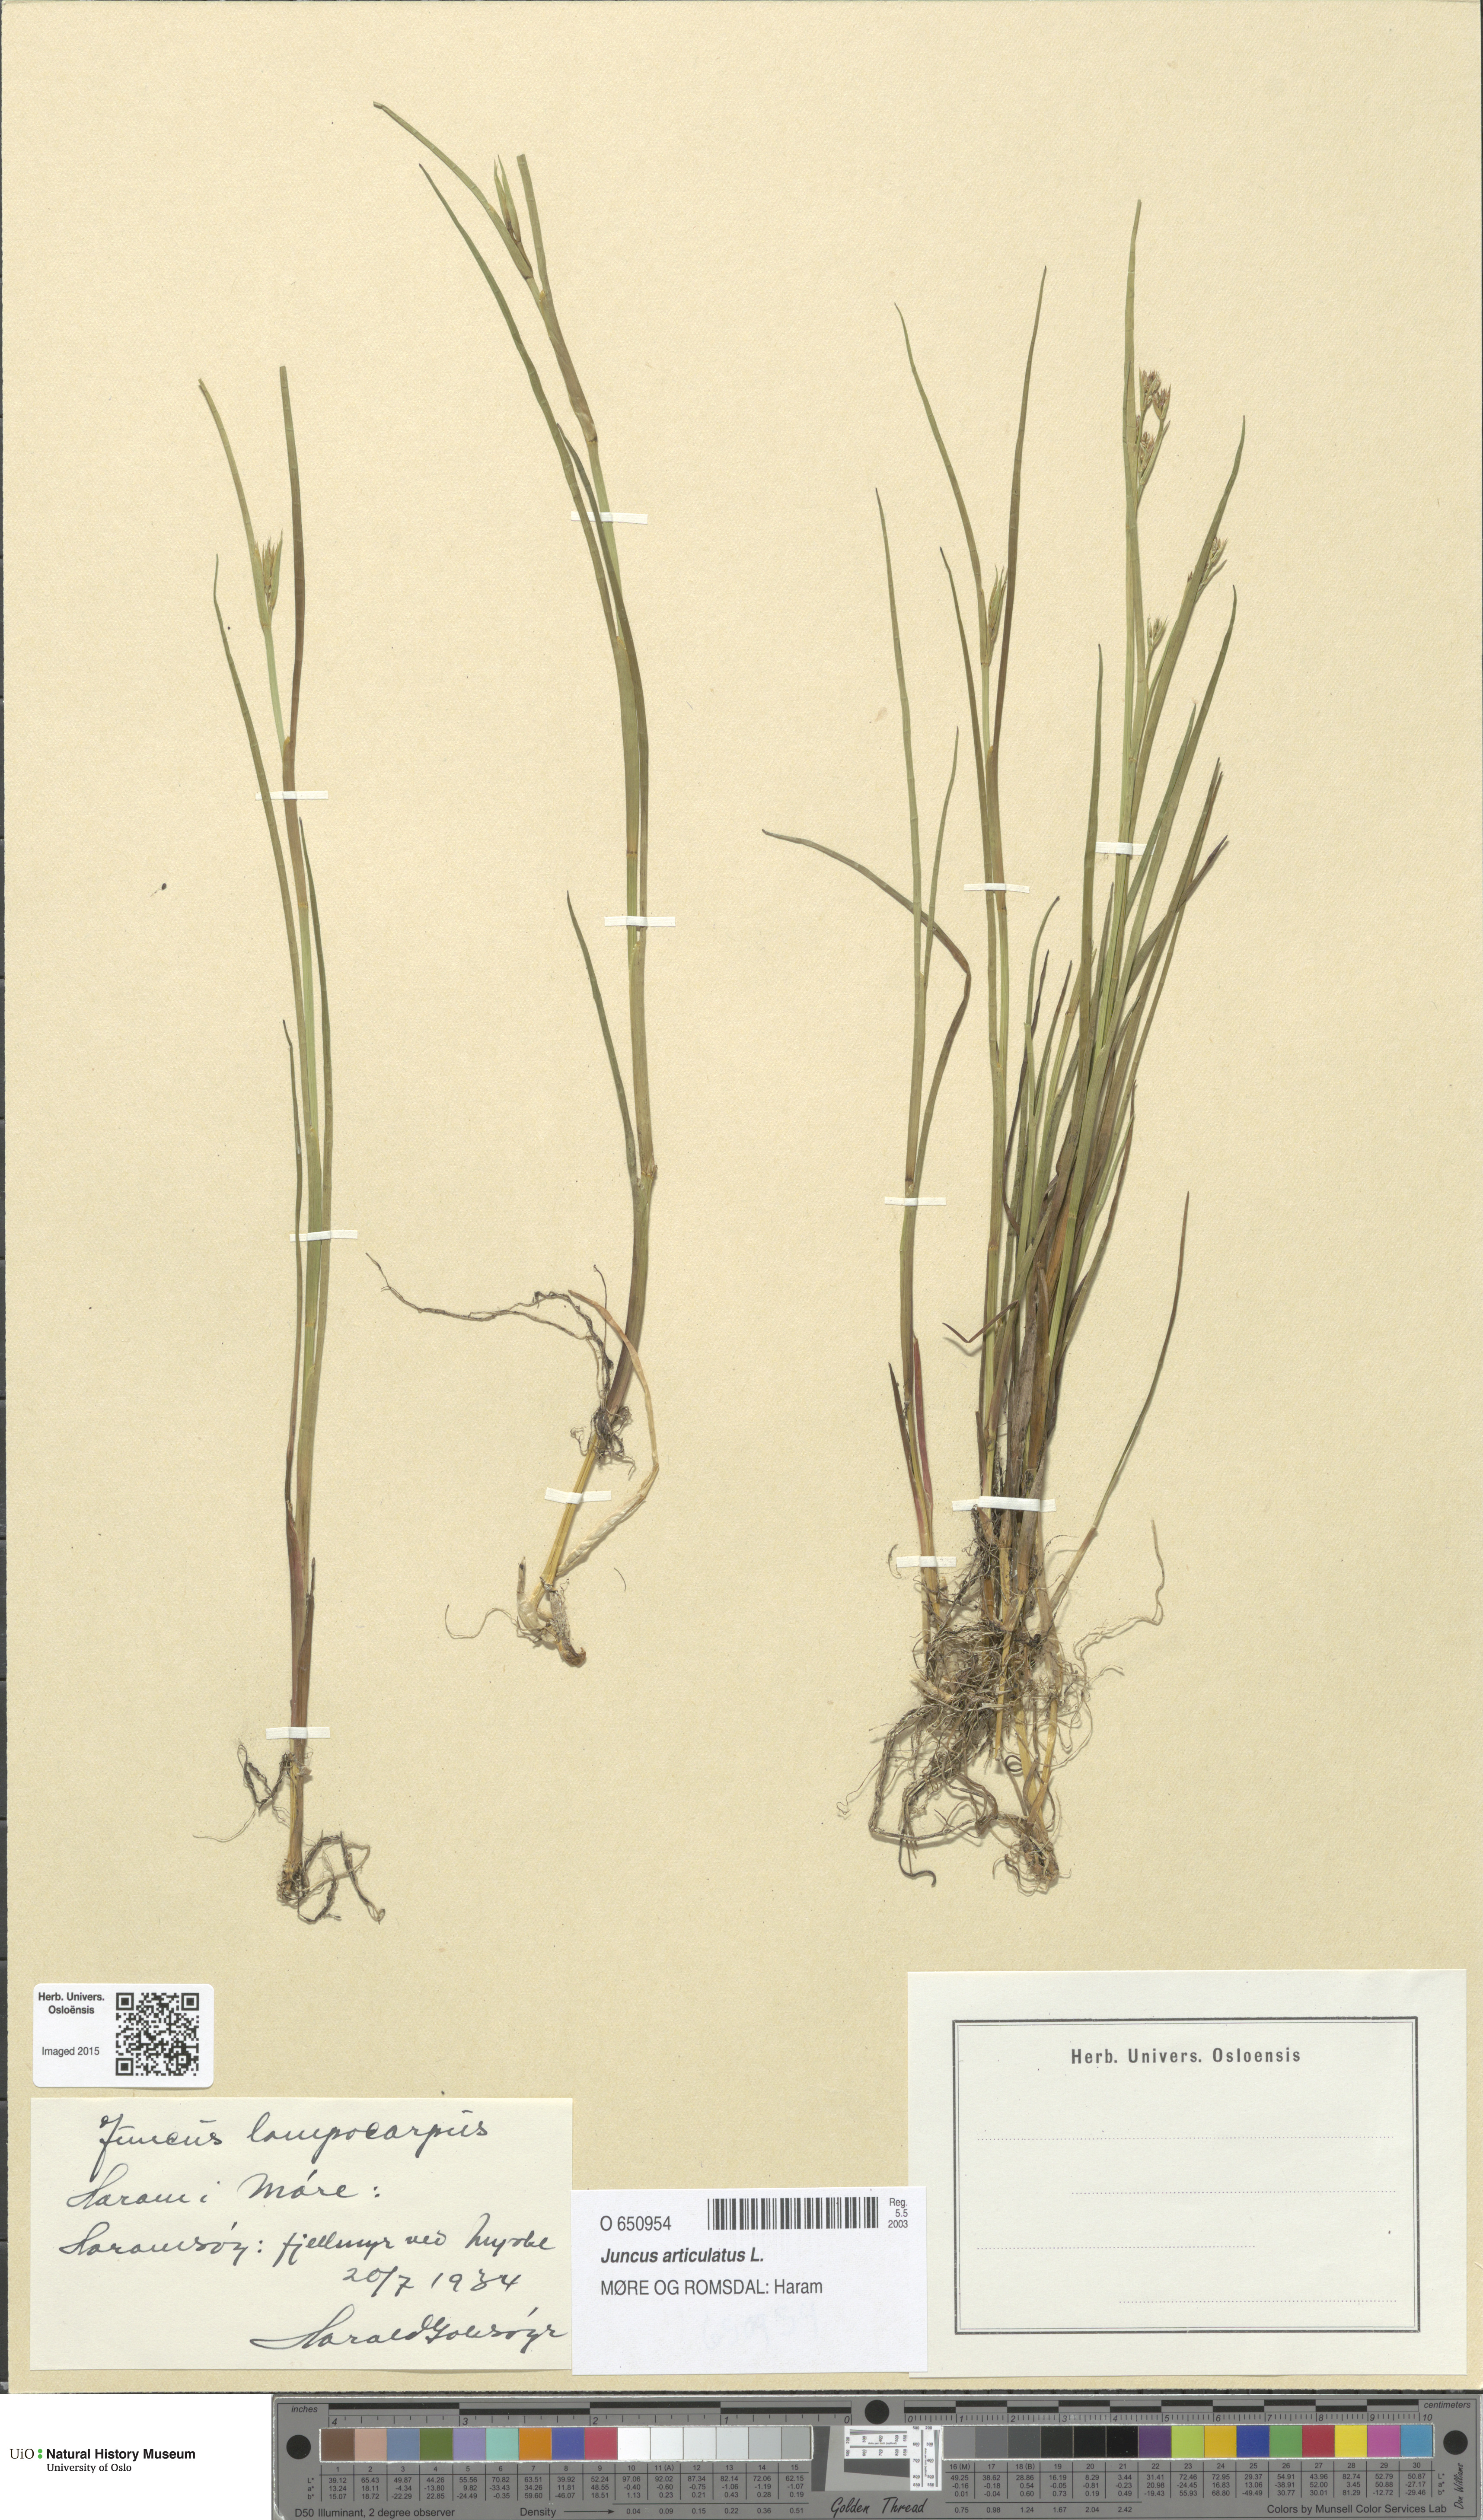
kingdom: Plantae
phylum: Tracheophyta
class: Liliopsida
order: Poales
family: Juncaceae
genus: Juncus
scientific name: Juncus articulatus
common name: Jointed rush
